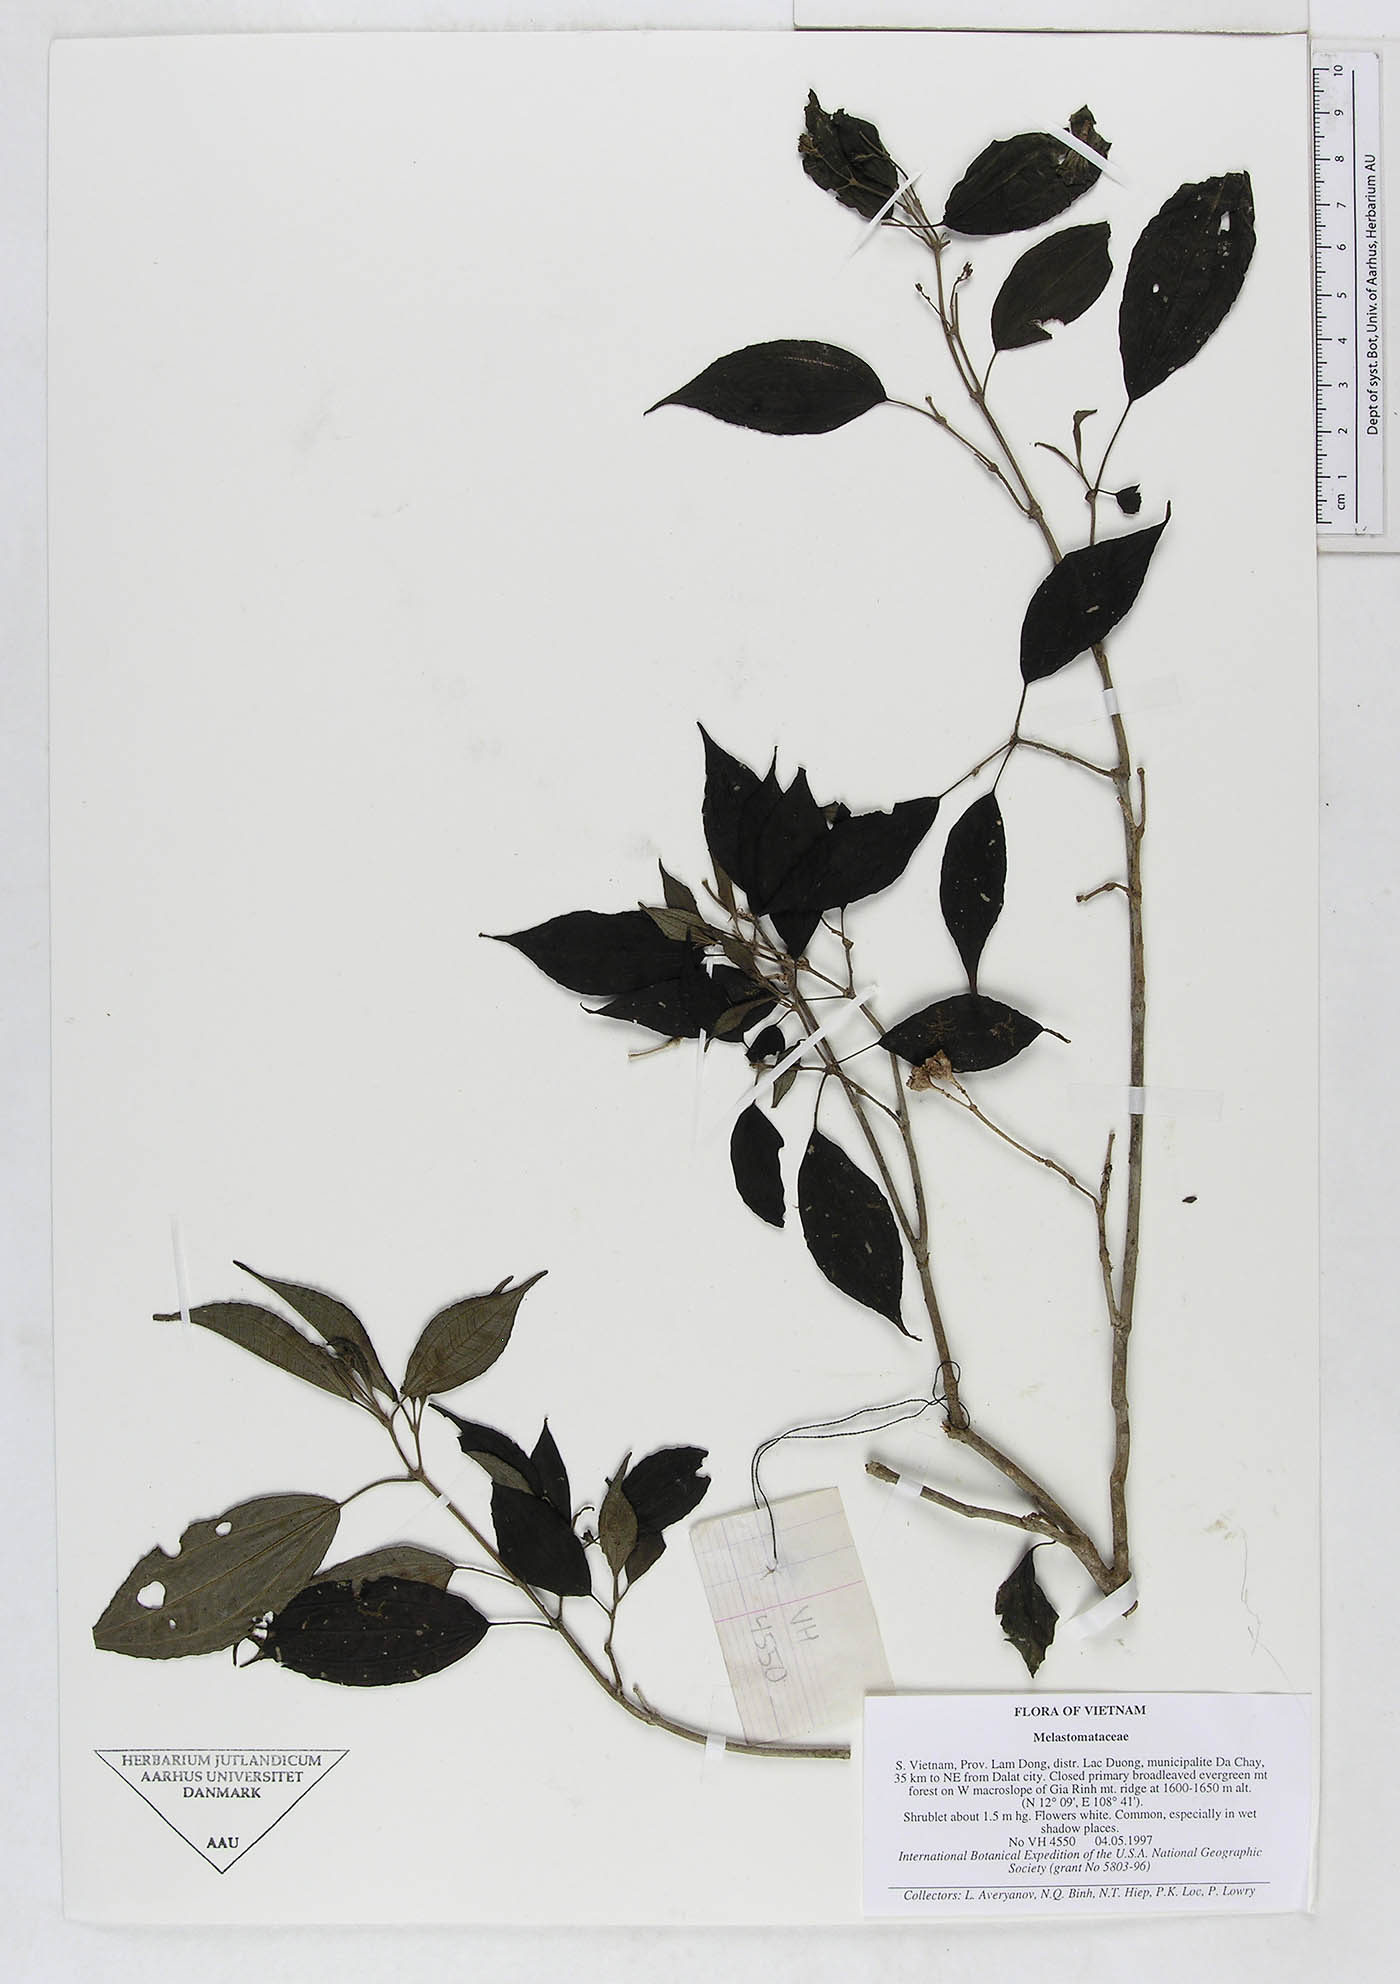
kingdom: Plantae
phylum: Tracheophyta
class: Magnoliopsida
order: Myrtales
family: Melastomataceae
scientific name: Melastomataceae
